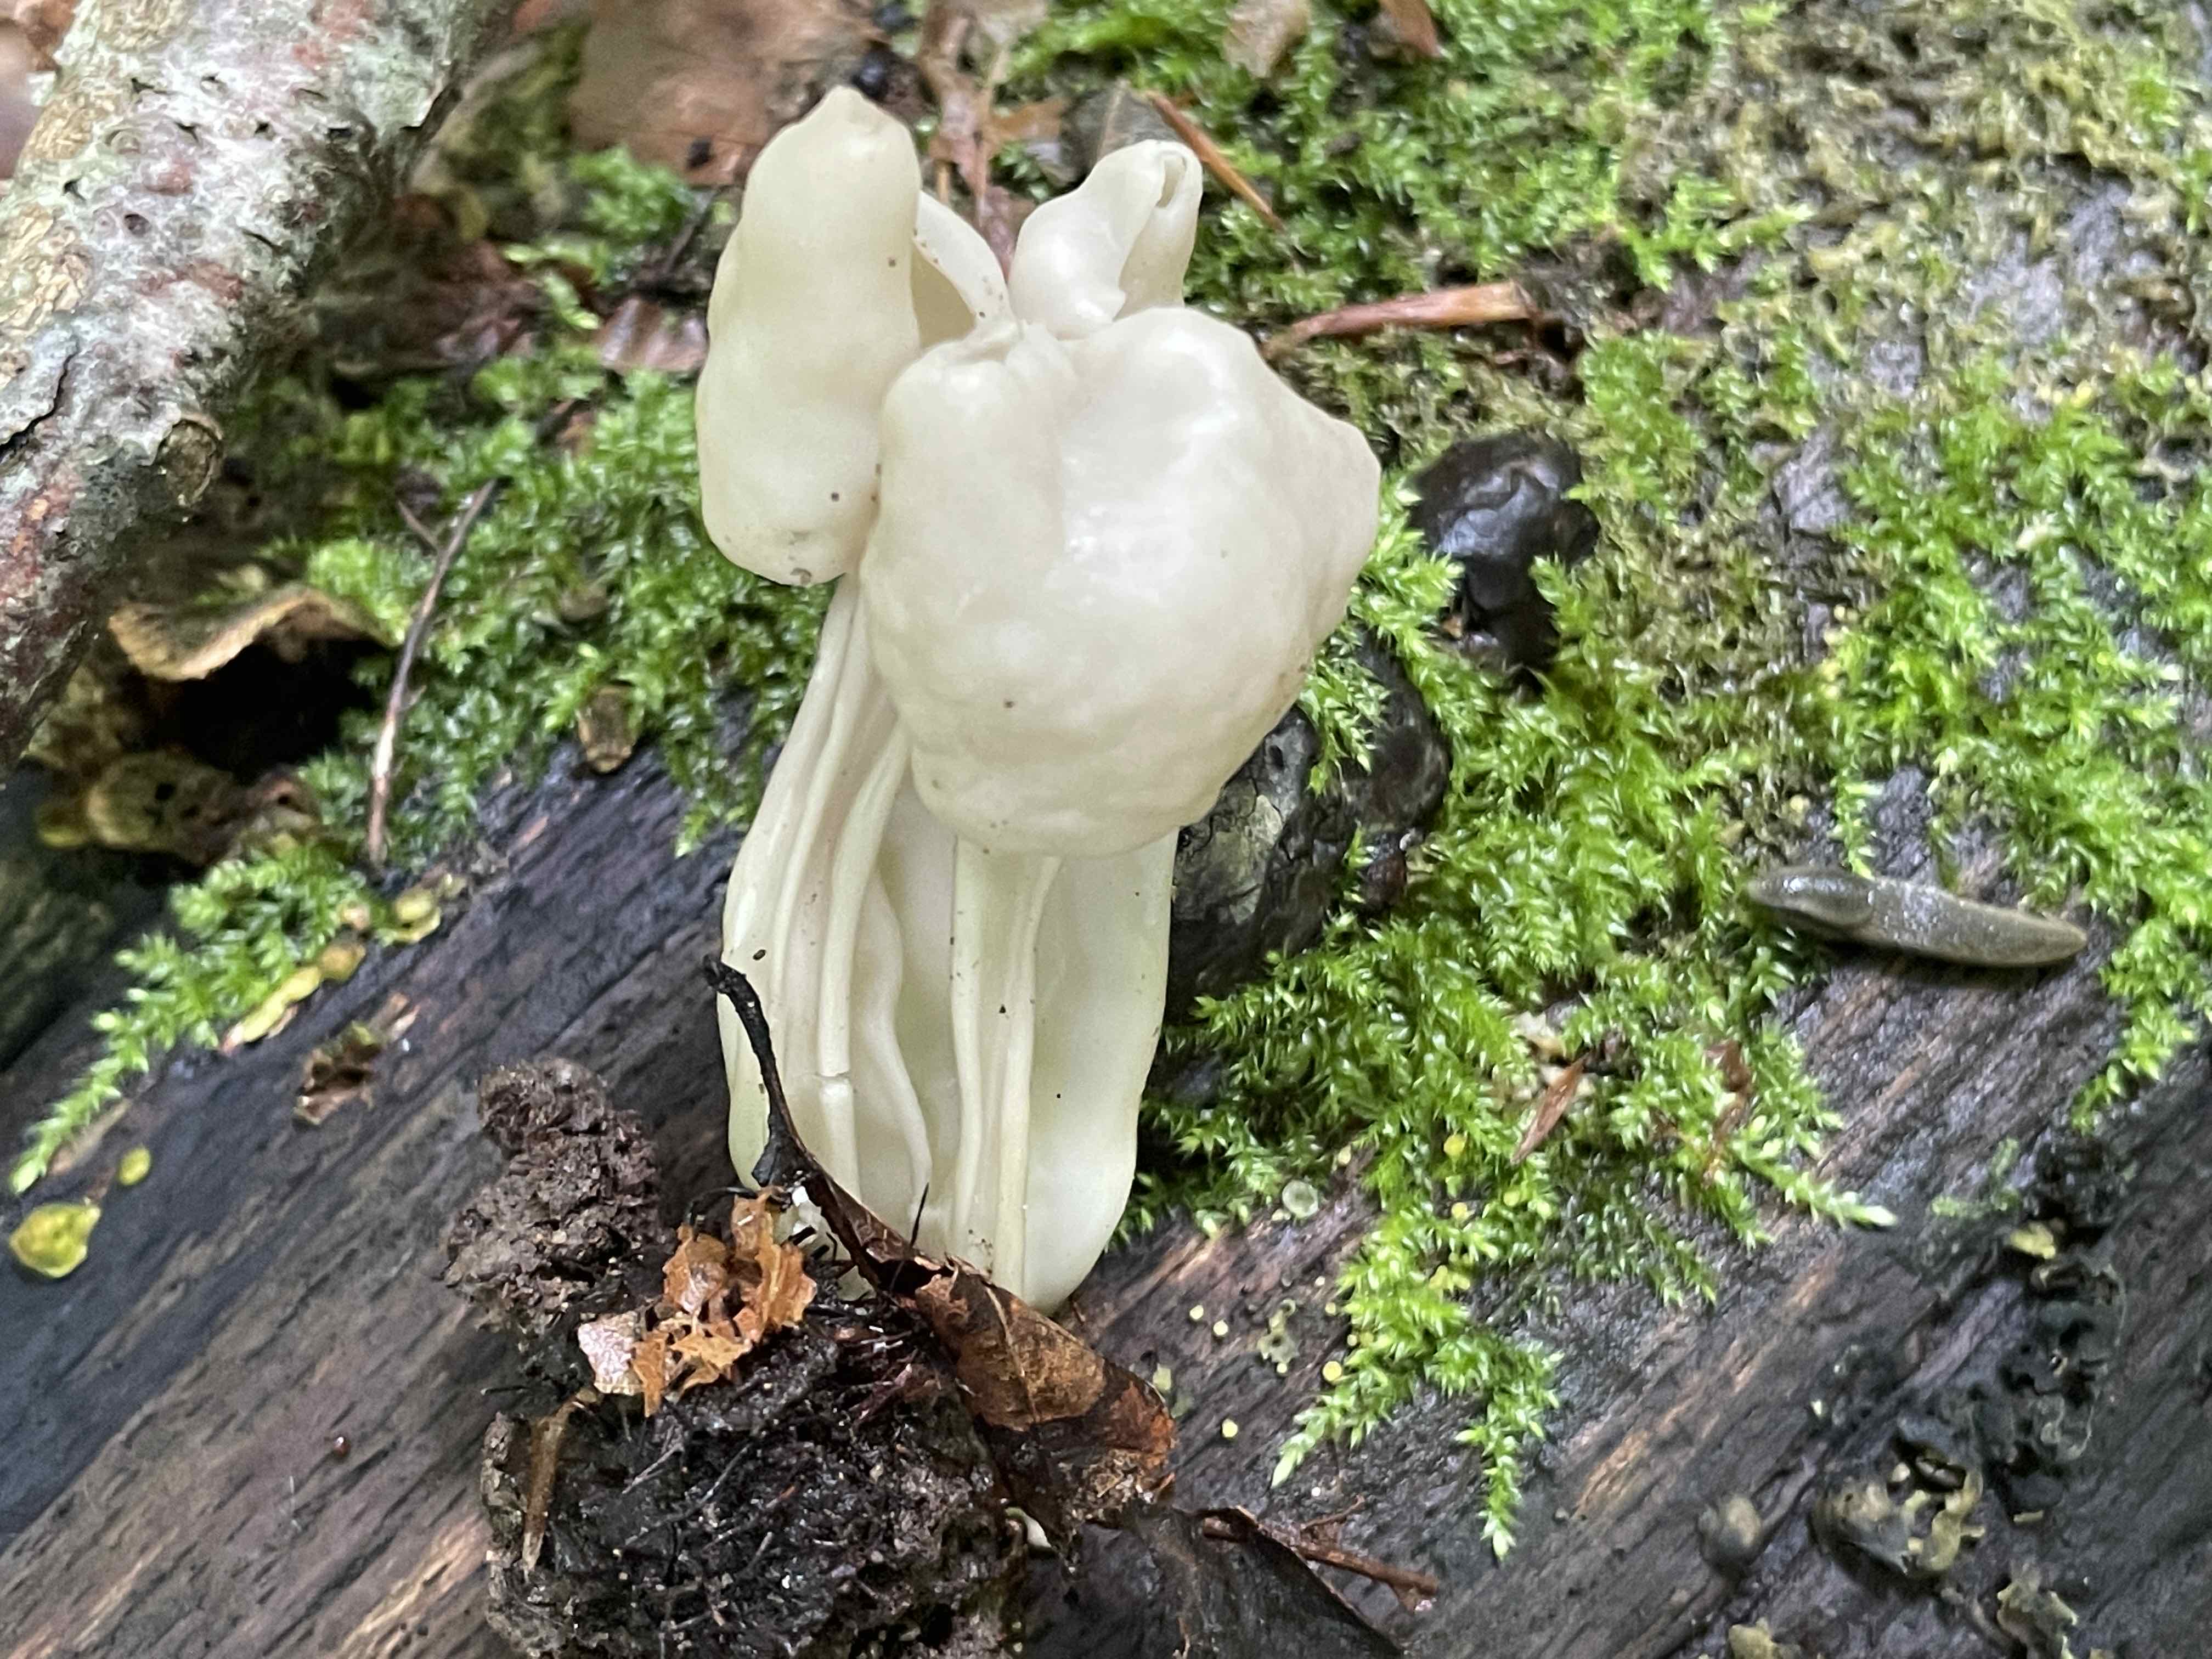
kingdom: Fungi
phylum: Ascomycota
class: Pezizomycetes
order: Pezizales
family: Helvellaceae
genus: Helvella
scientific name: Helvella
